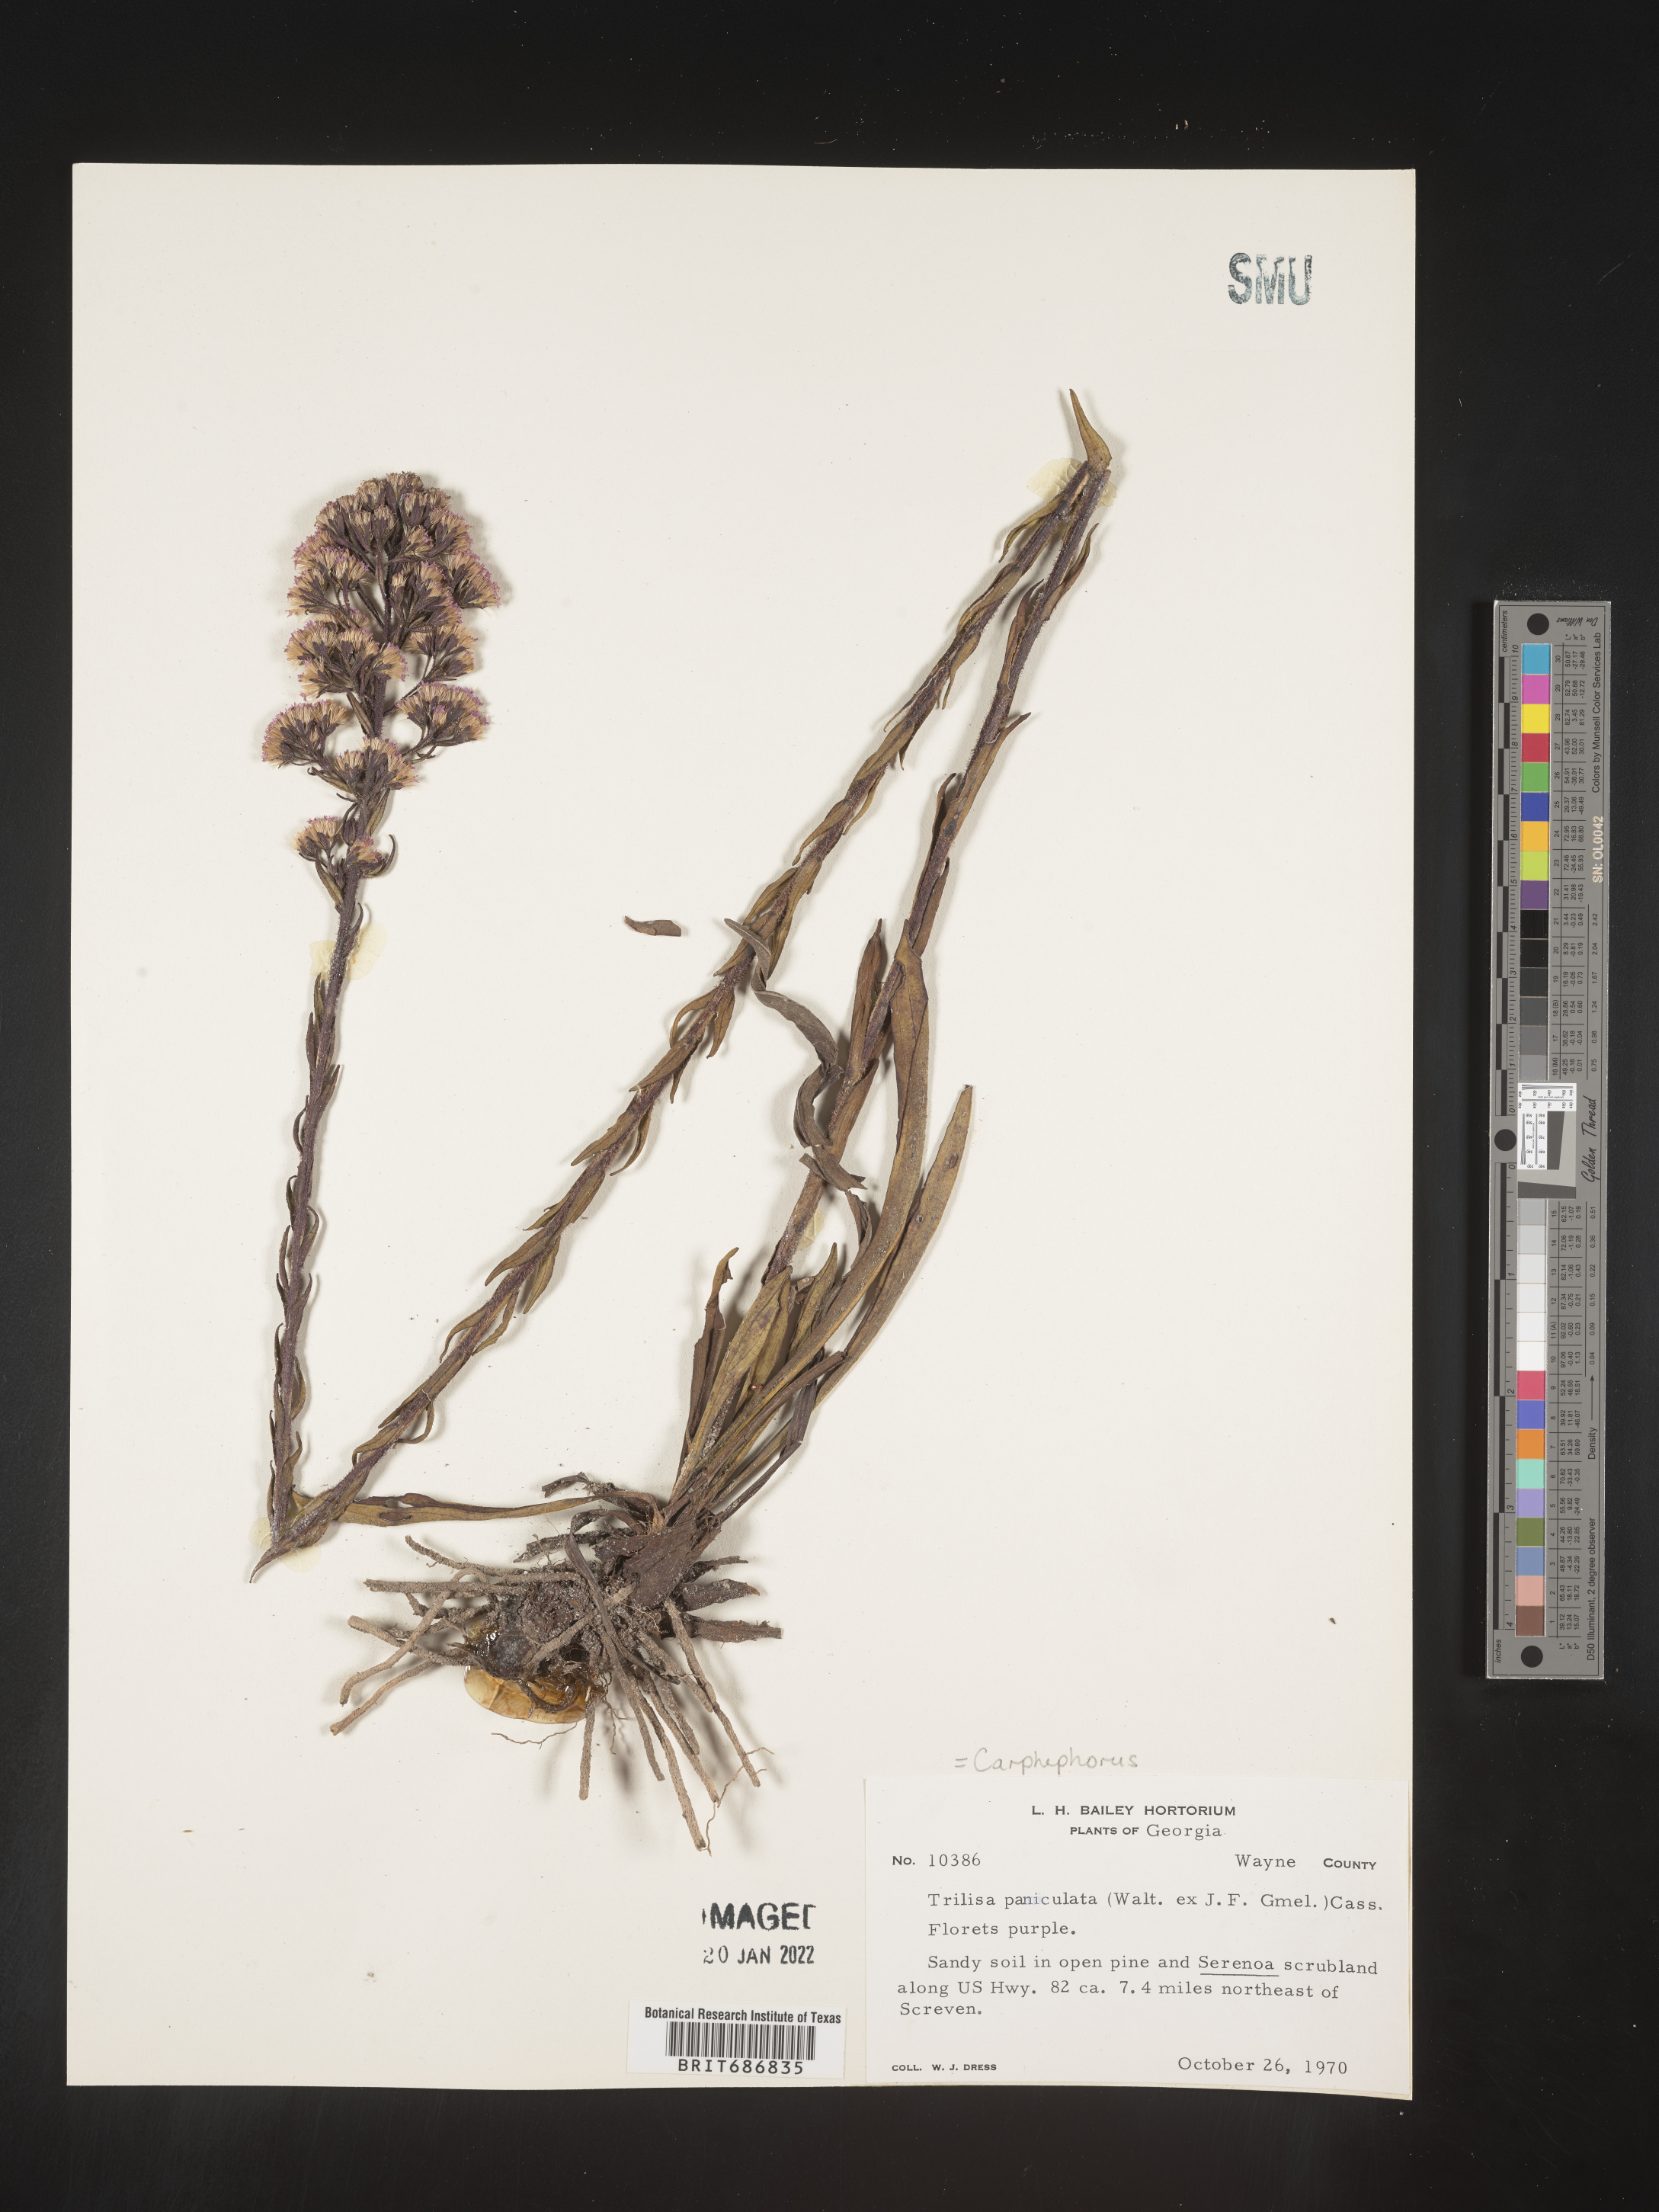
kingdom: Plantae
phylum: Tracheophyta
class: Magnoliopsida
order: Asterales
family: Asteraceae
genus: Carphephorus
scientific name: Carphephorus paniculatus
